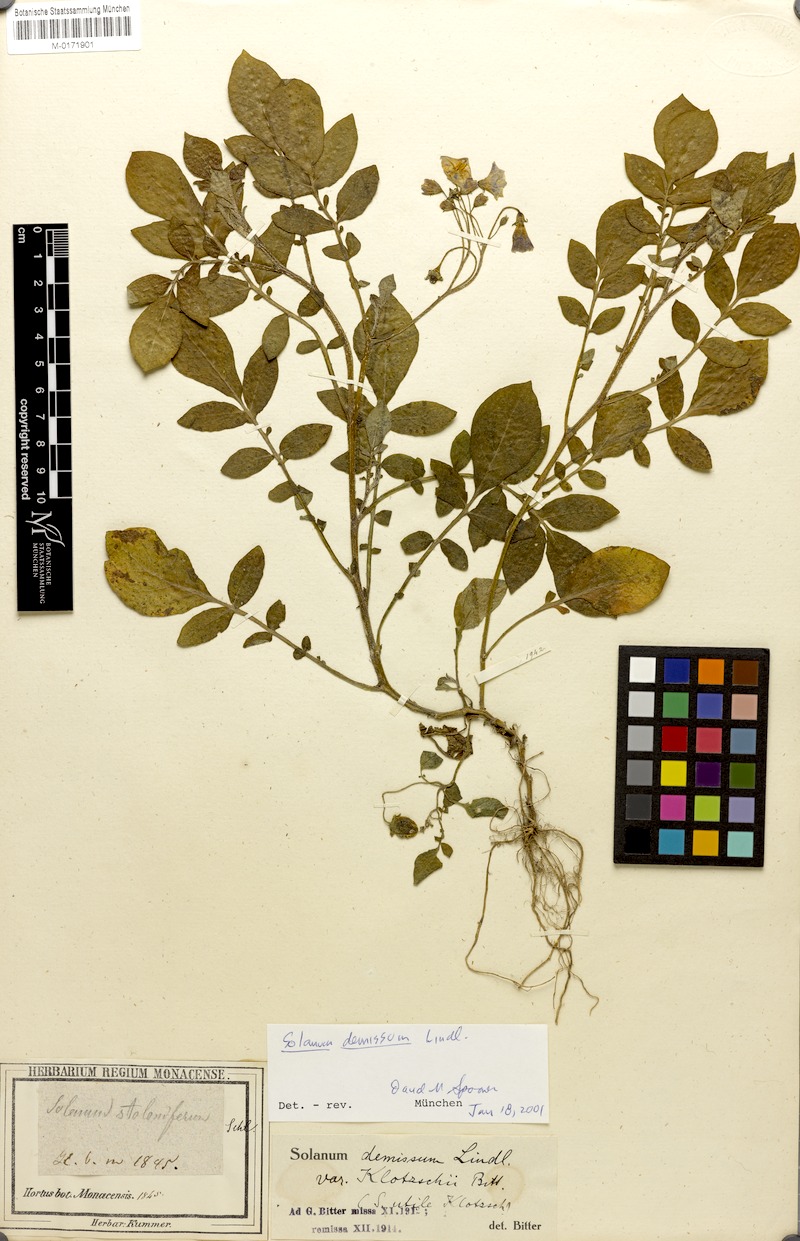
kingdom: Plantae
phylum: Tracheophyta
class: Magnoliopsida
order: Solanales
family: Solanaceae
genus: Solanum
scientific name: Solanum demissum
